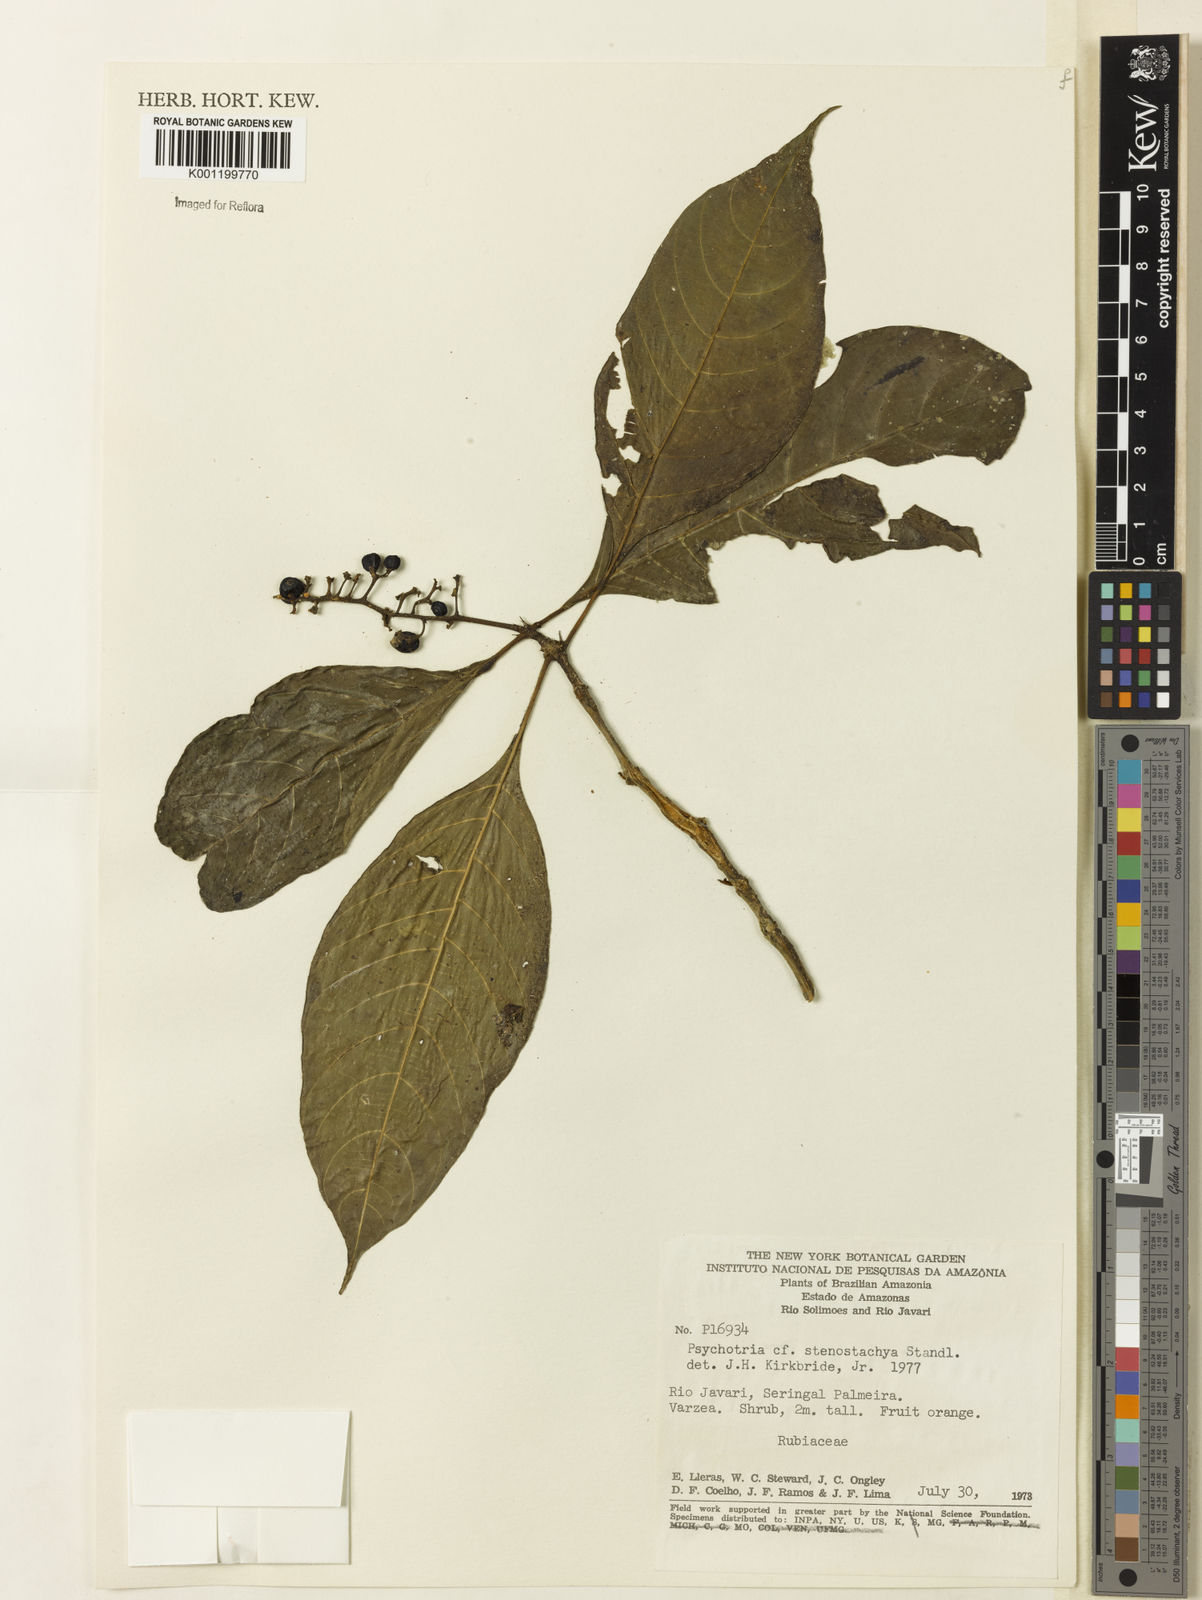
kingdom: Plantae
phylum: Tracheophyta
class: Magnoliopsida
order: Gentianales
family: Rubiaceae
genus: Palicourea
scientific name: Palicourea stenostachya
